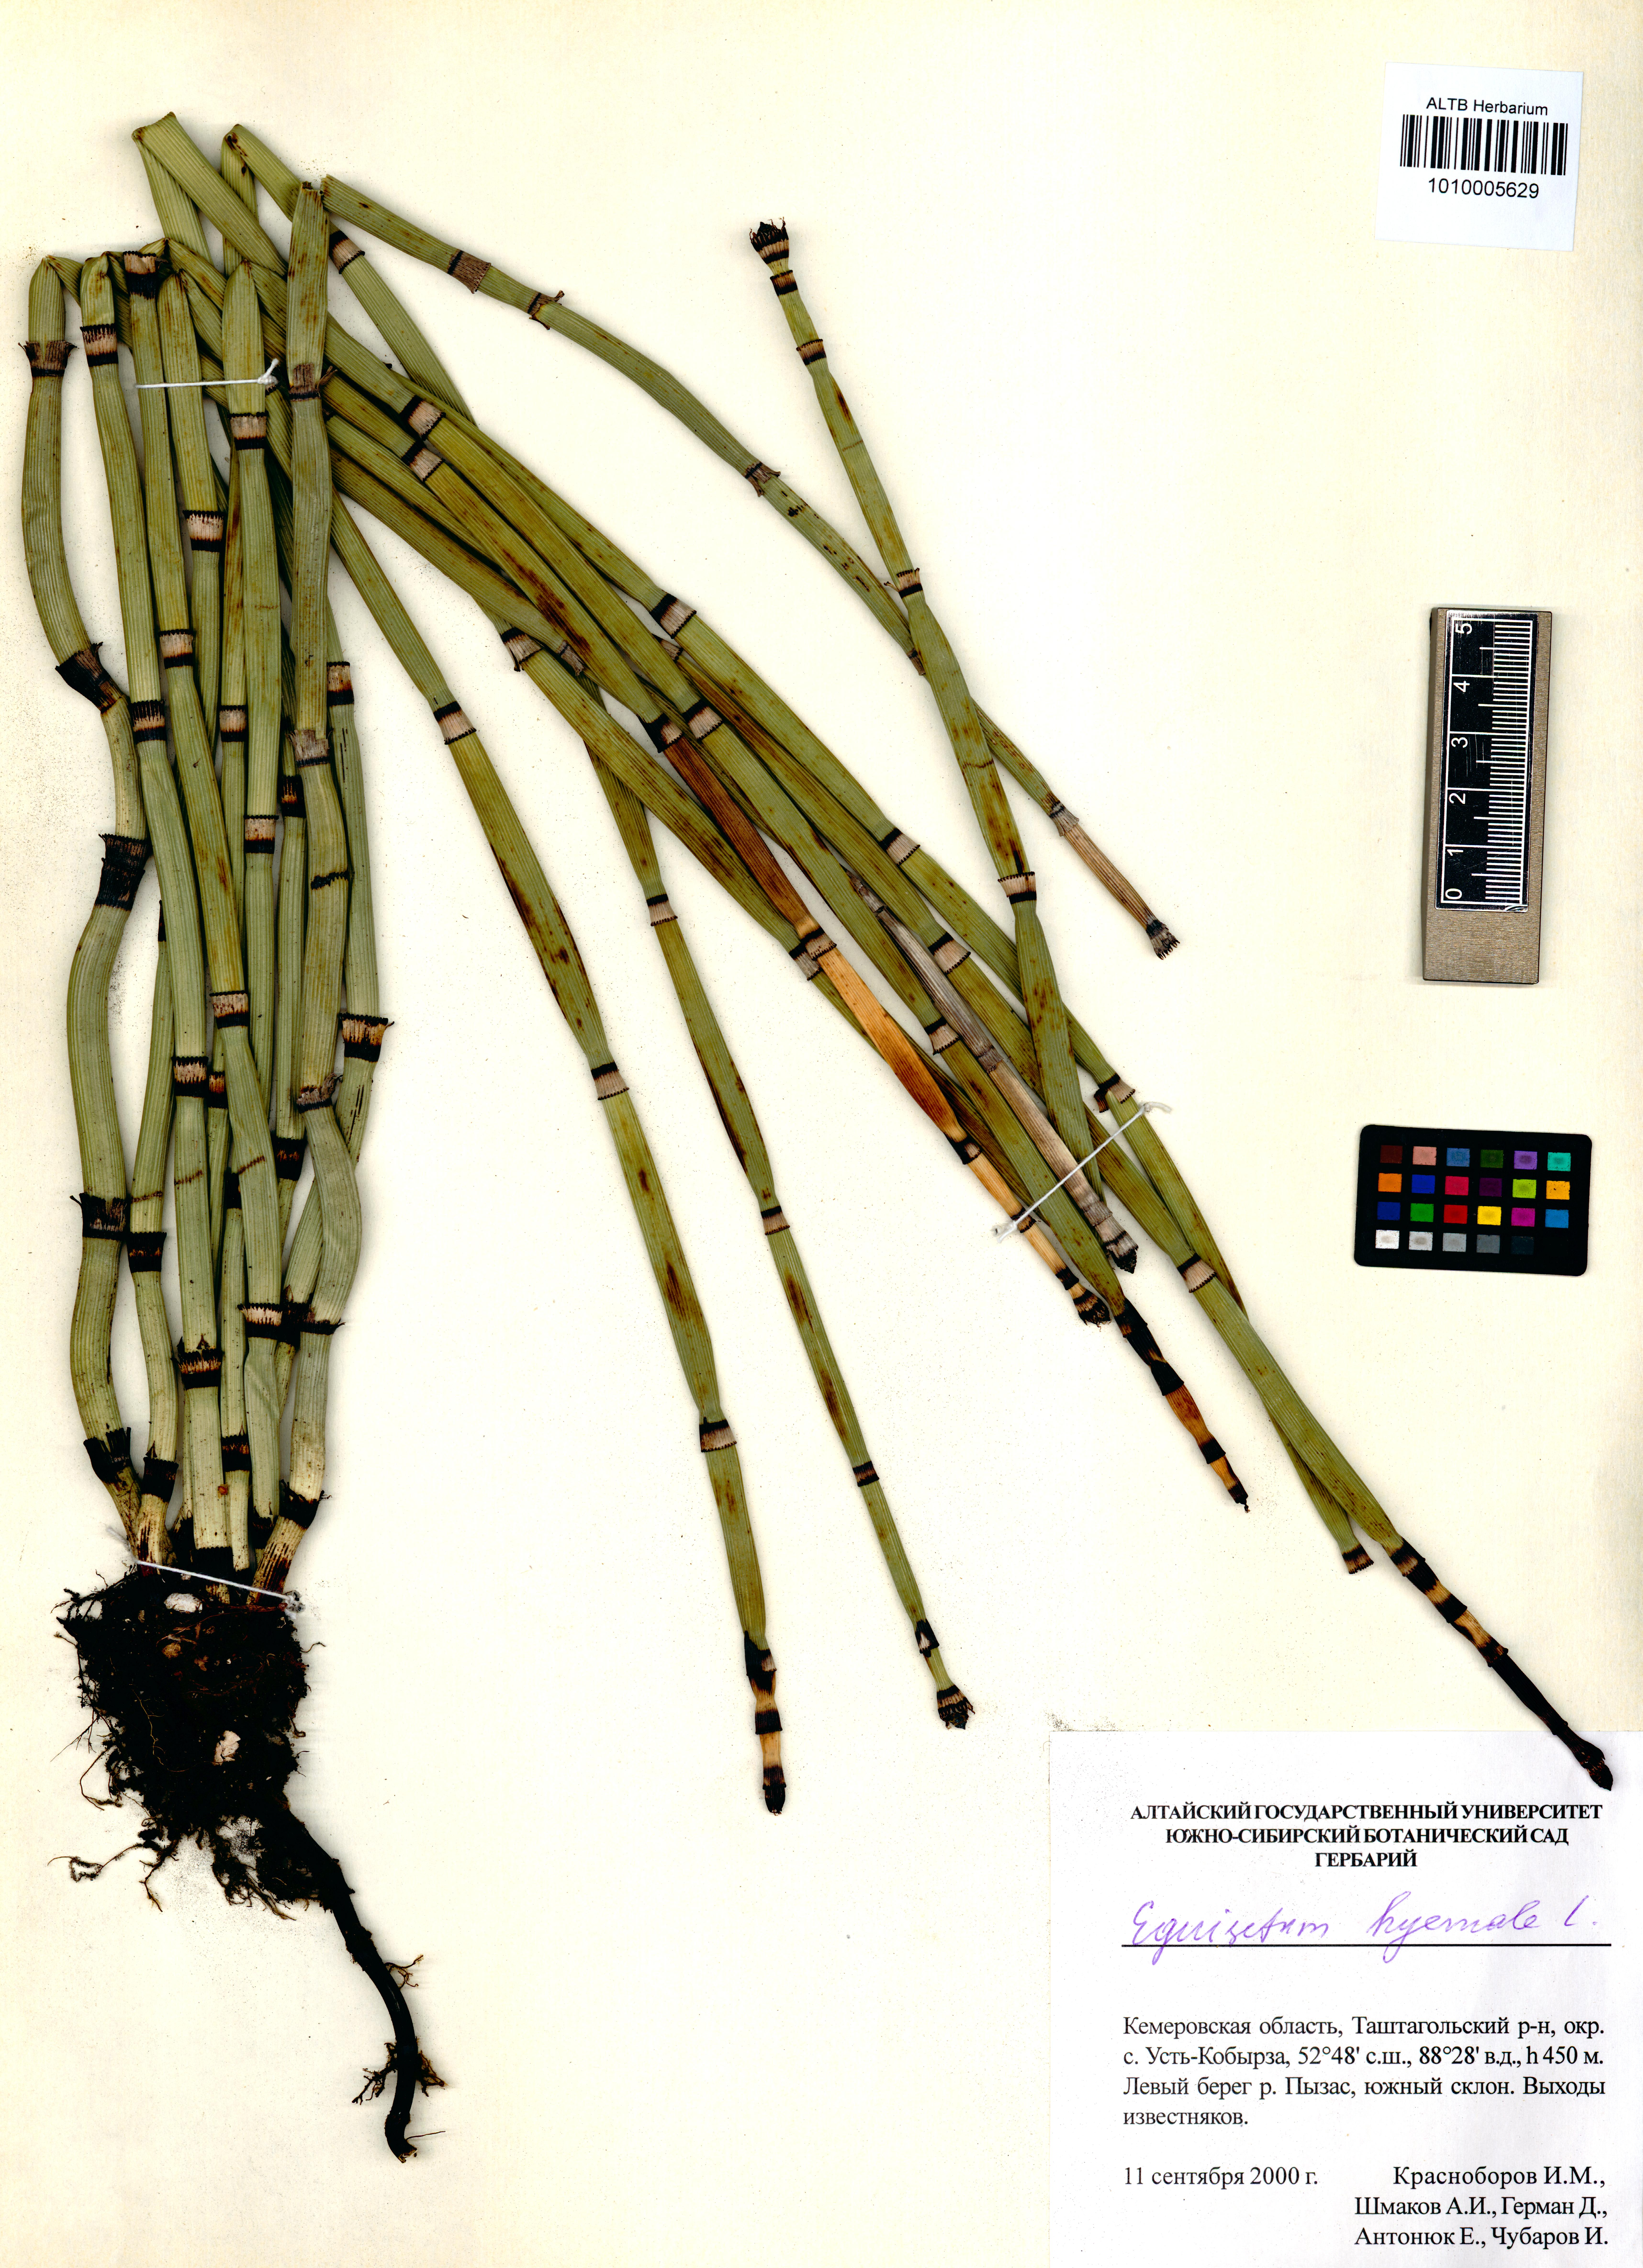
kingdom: Plantae
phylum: Tracheophyta
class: Polypodiopsida
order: Equisetales
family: Equisetaceae
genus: Equisetum
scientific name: Equisetum hyemale
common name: Rough horsetail
